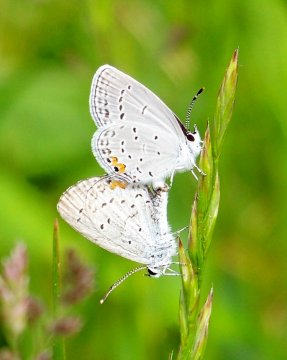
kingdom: Animalia
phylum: Arthropoda
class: Insecta
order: Lepidoptera
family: Lycaenidae
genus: Elkalyce
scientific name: Elkalyce comyntas
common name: Eastern Tailed-Blue
